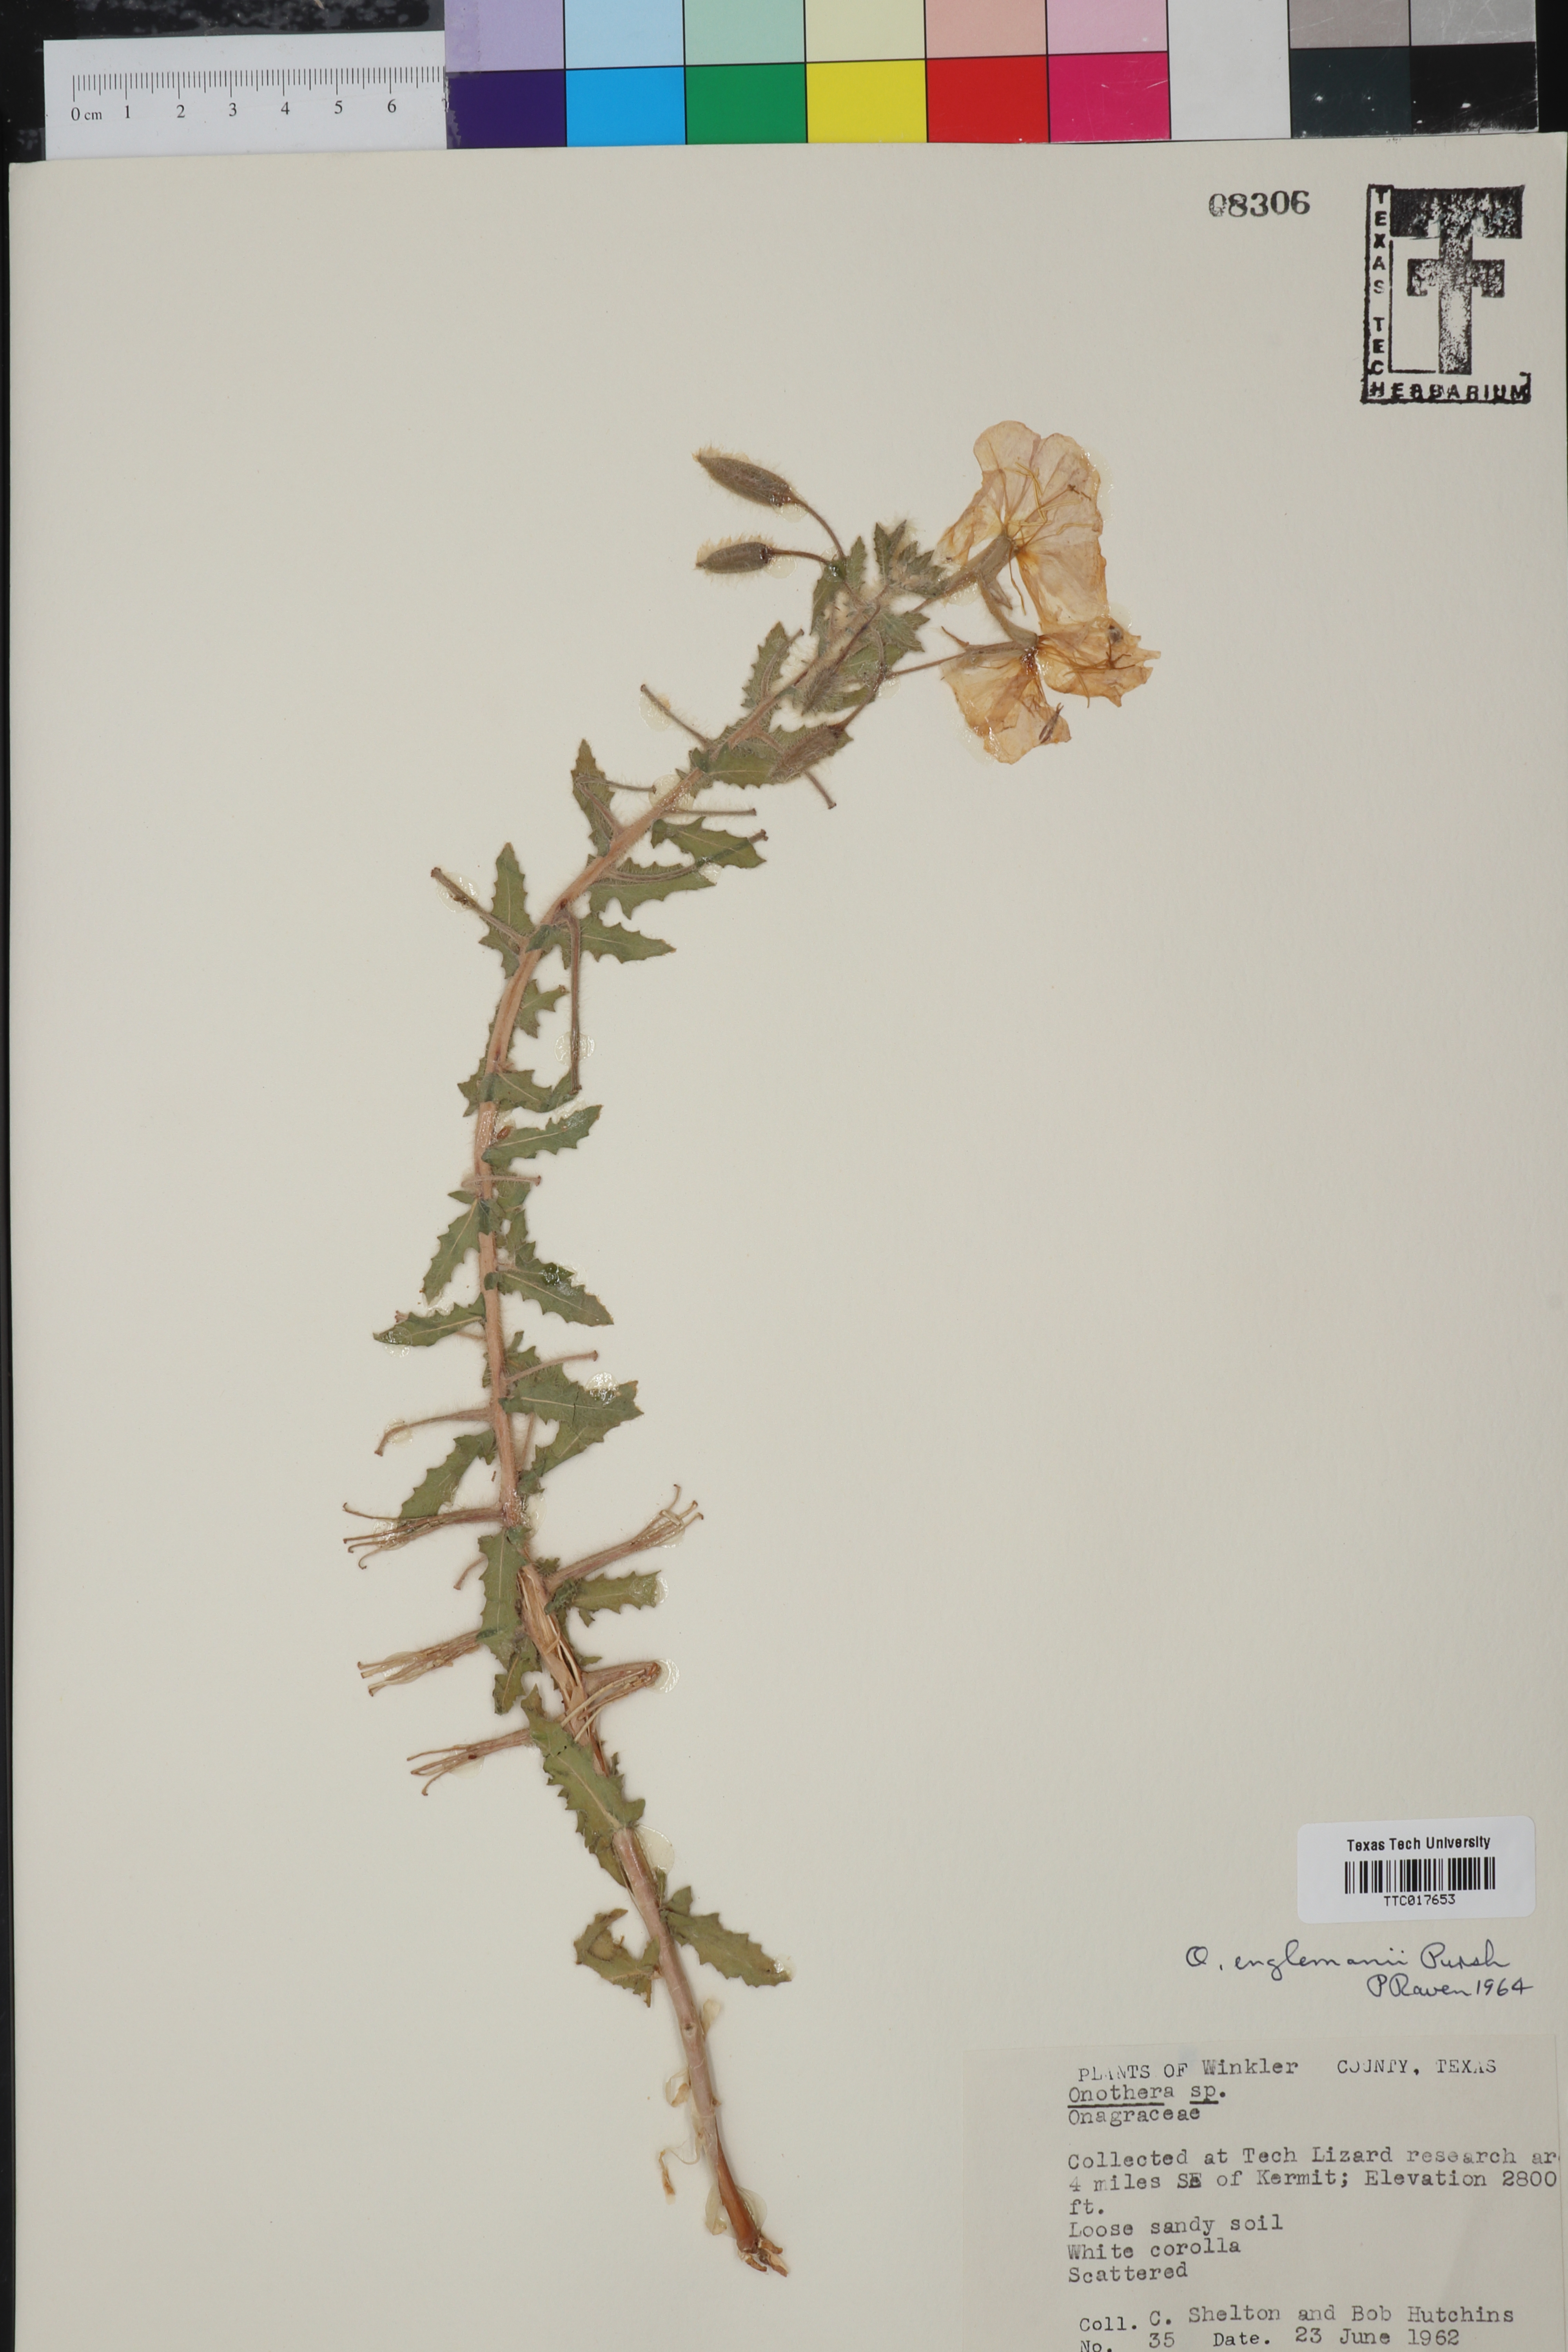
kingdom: Plantae
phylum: Tracheophyta
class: Magnoliopsida
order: Myrtales
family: Onagraceae
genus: Oenothera
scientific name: Oenothera engelmannii
